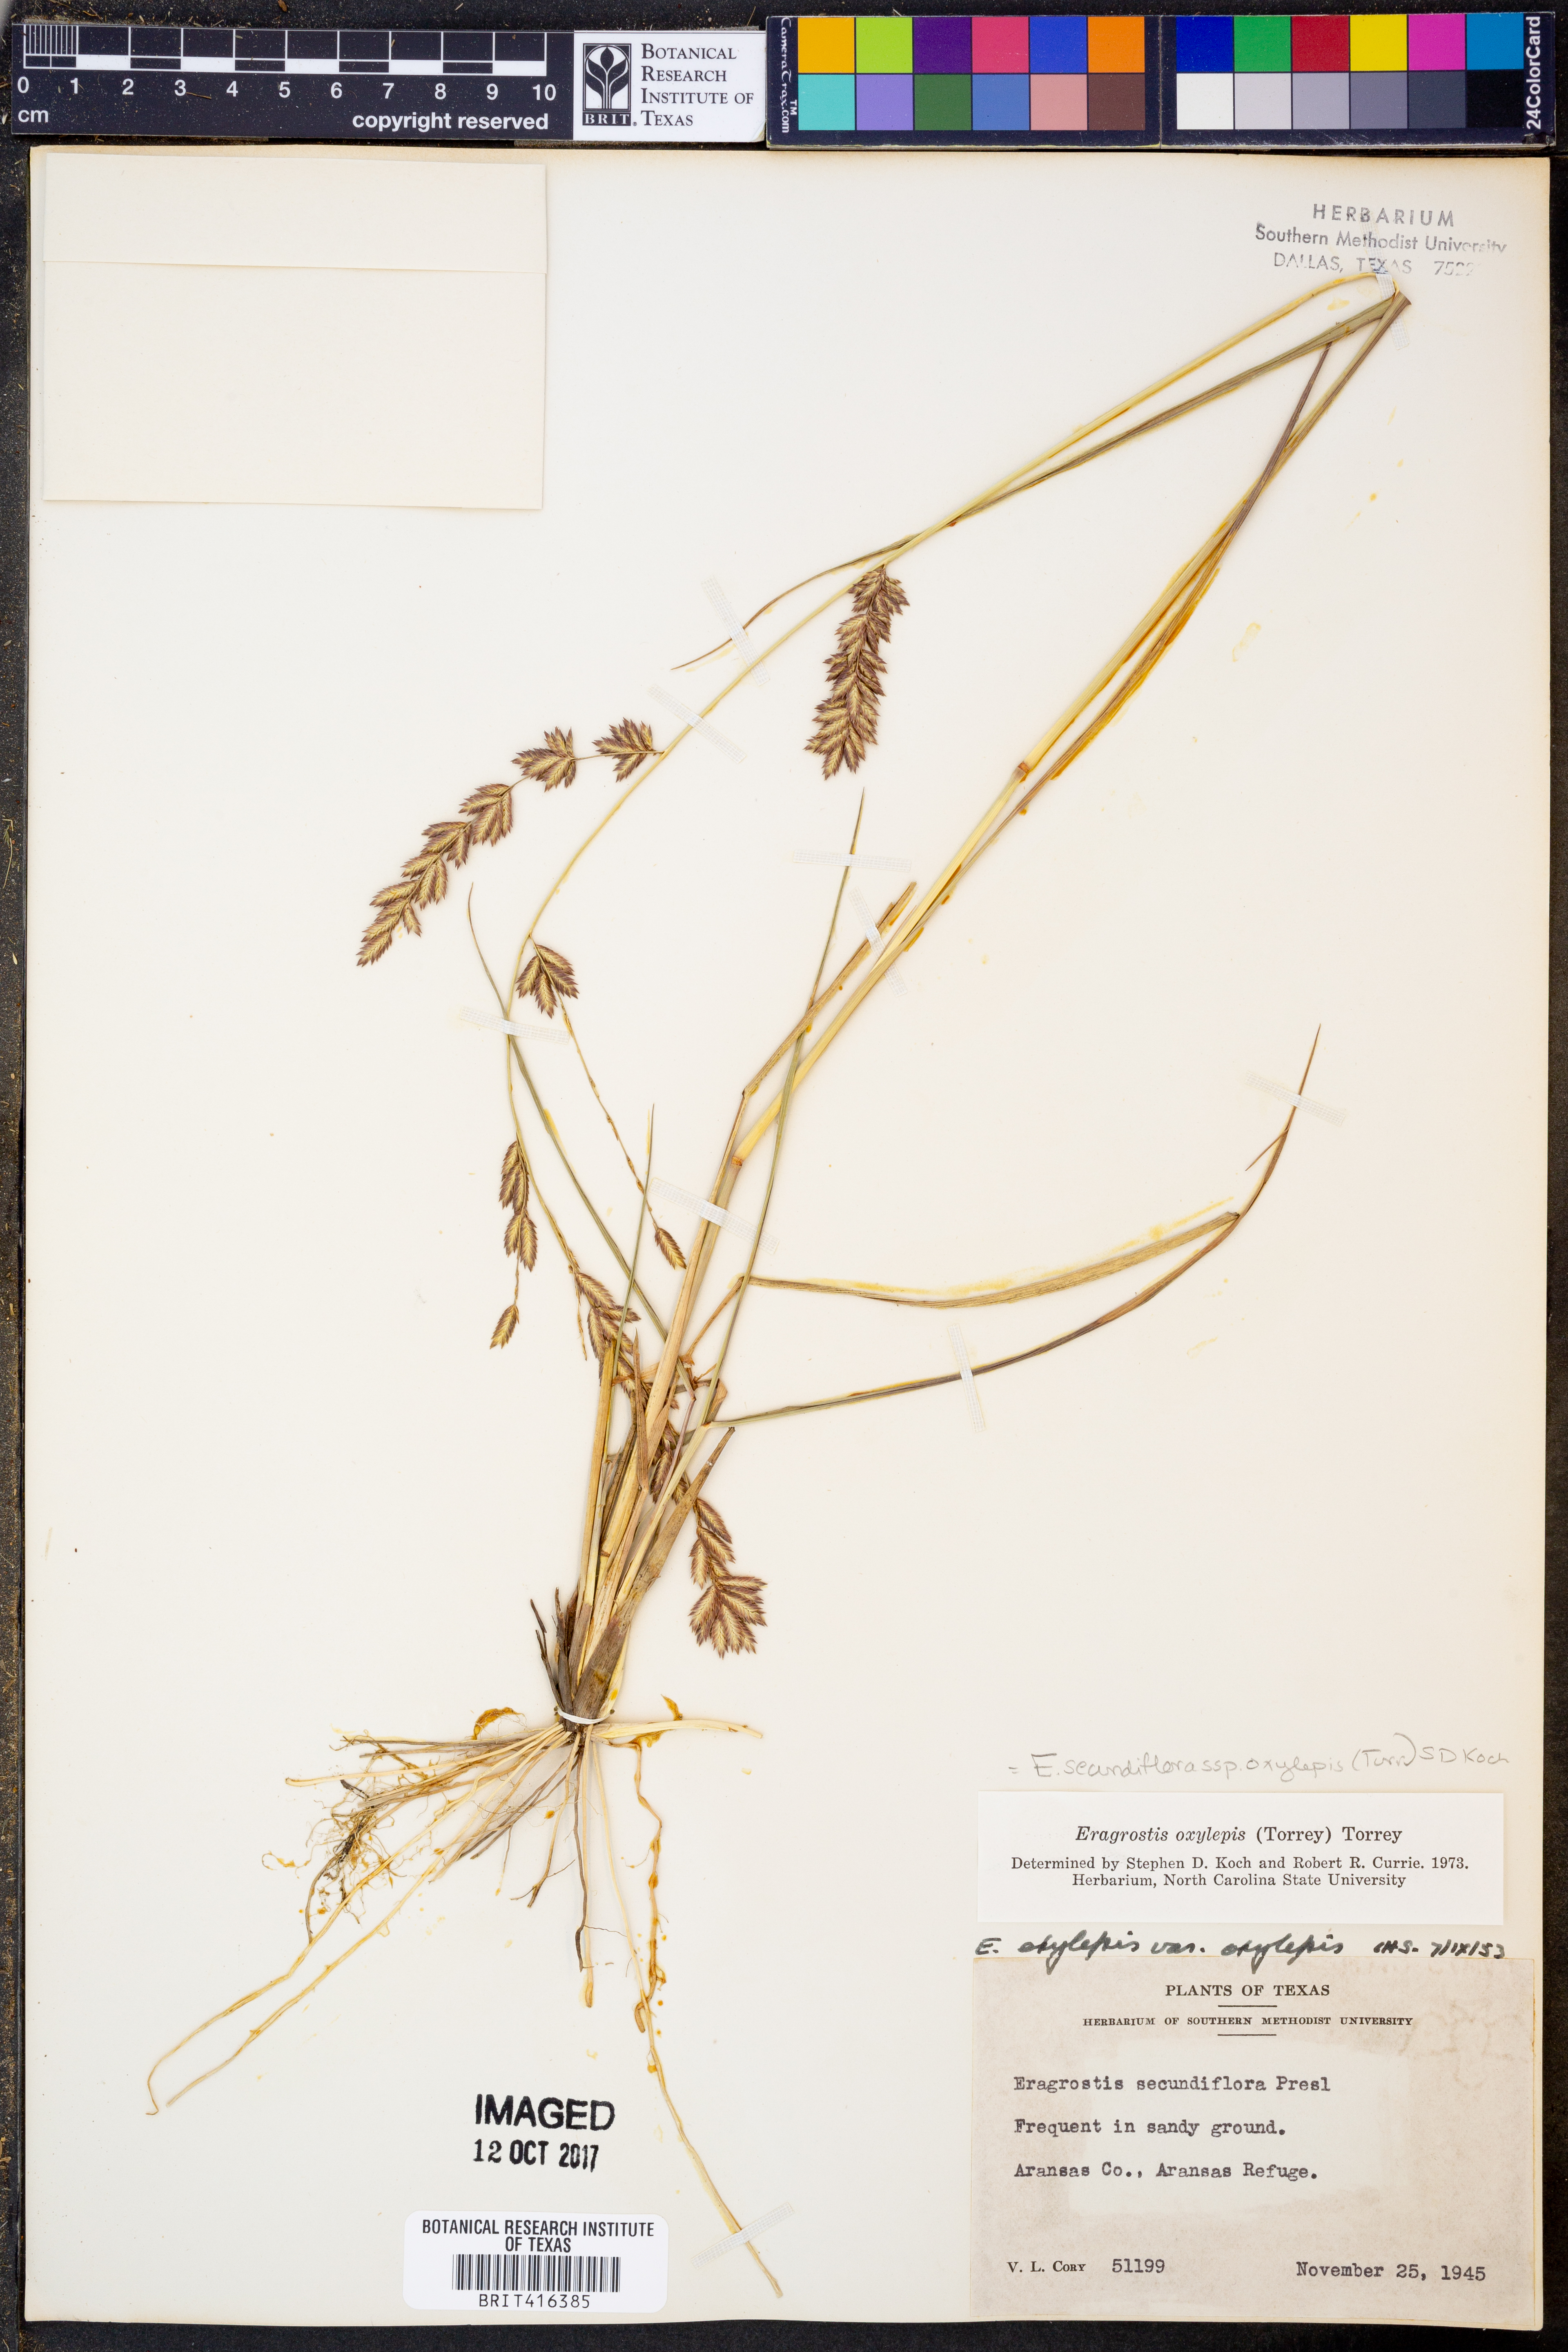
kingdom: Plantae
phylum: Tracheophyta
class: Liliopsida
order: Poales
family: Poaceae
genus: Eragrostis
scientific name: Eragrostis secundiflora
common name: Red love grass
